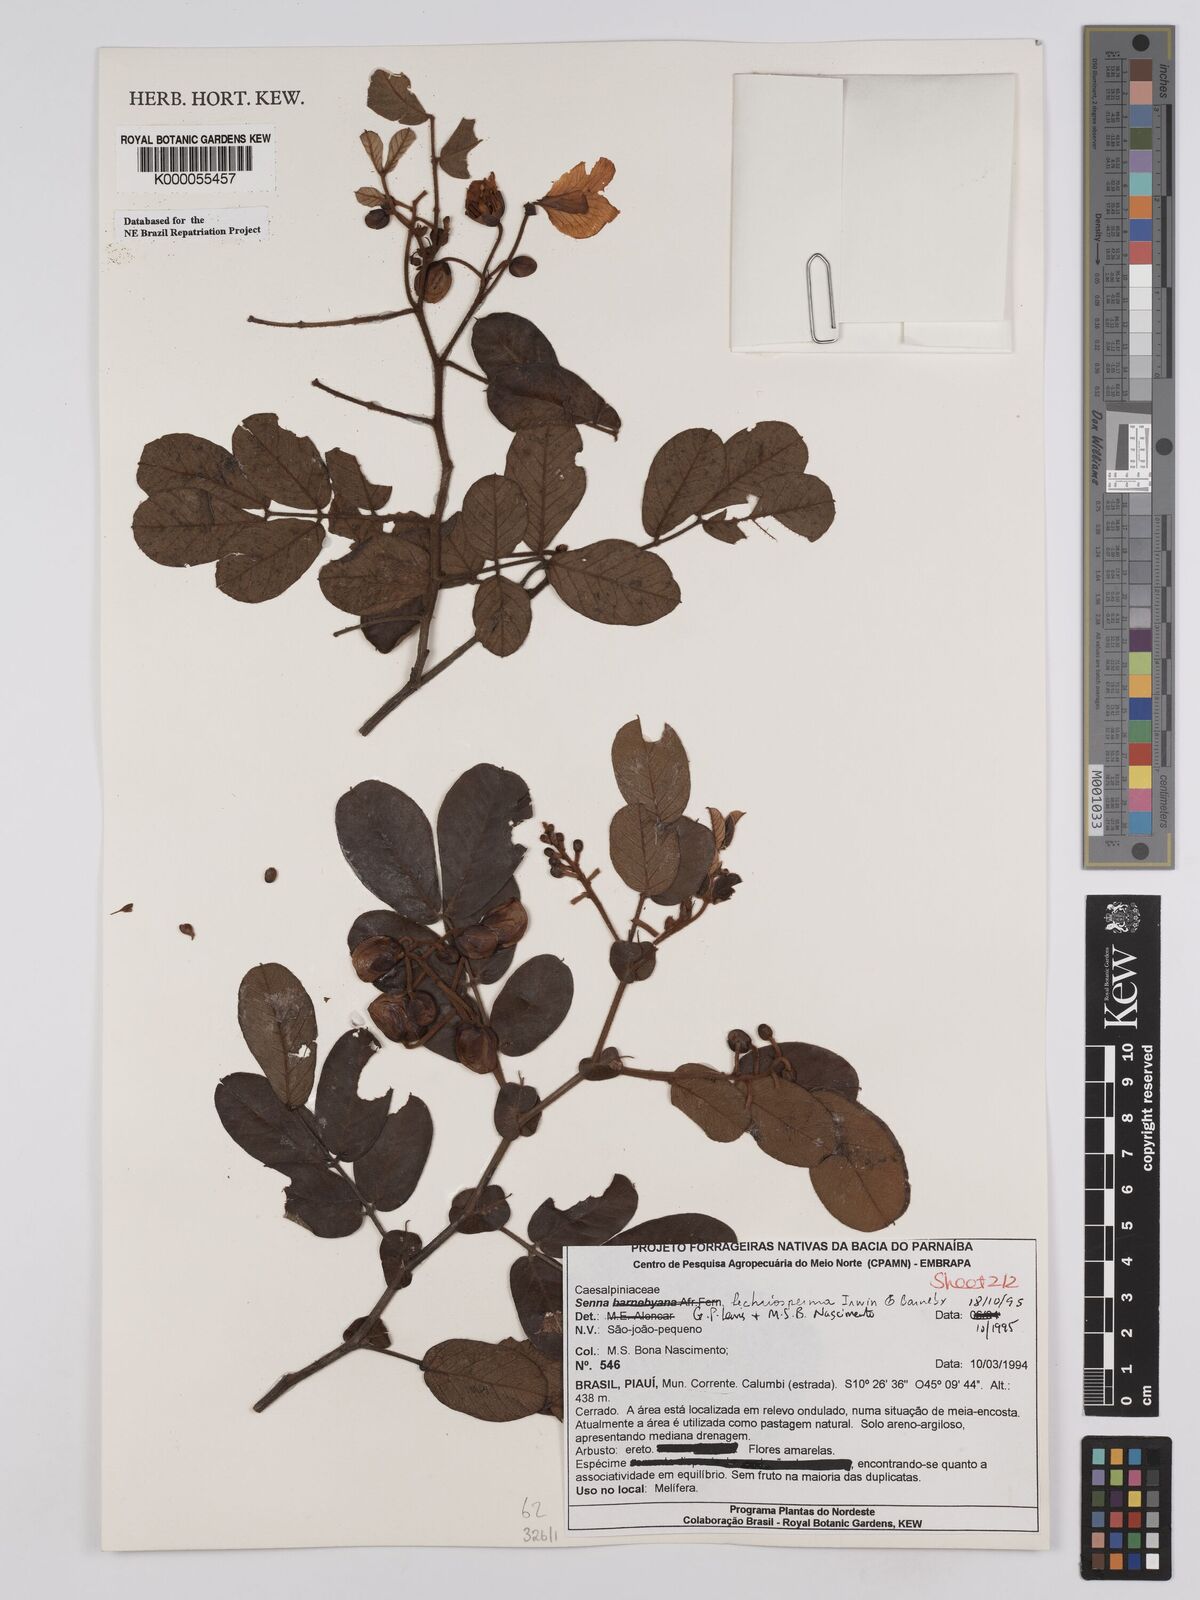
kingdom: Plantae
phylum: Tracheophyta
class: Magnoliopsida
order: Fabales
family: Fabaceae
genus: Senna
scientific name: Senna lechriosperma
